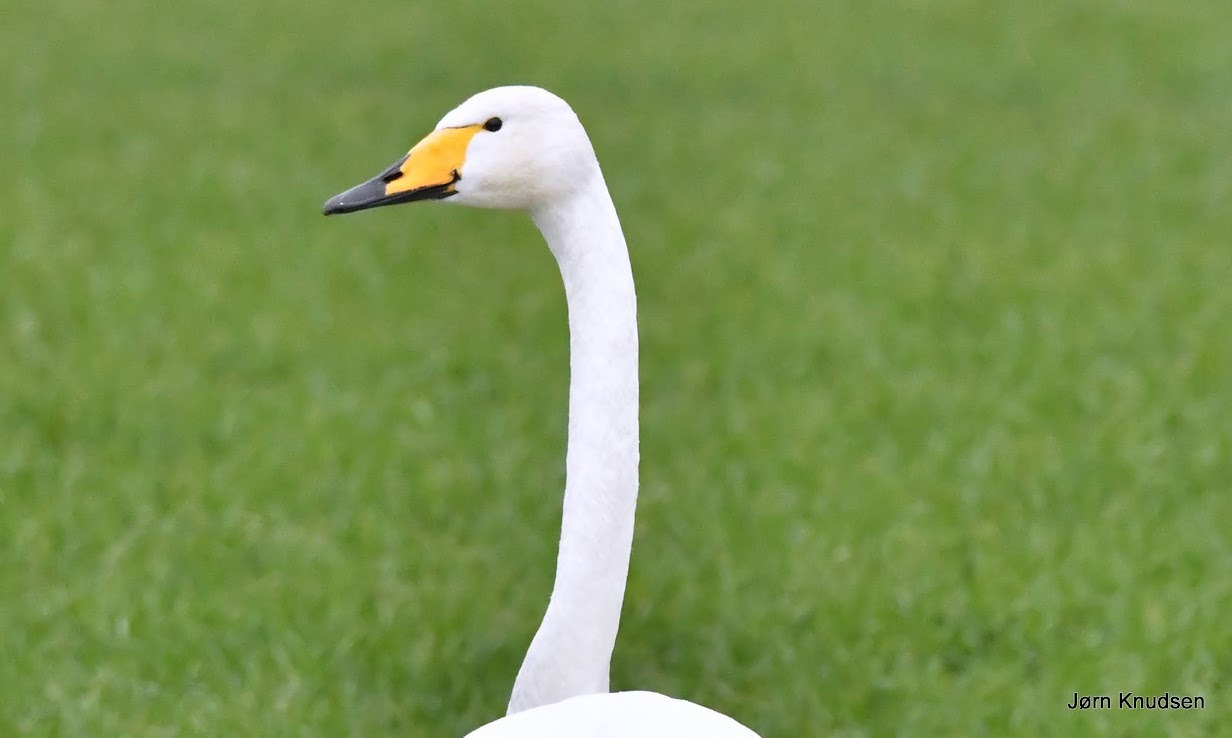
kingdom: Animalia
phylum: Chordata
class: Aves
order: Anseriformes
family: Anatidae
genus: Cygnus
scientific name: Cygnus cygnus
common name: Sangsvane
